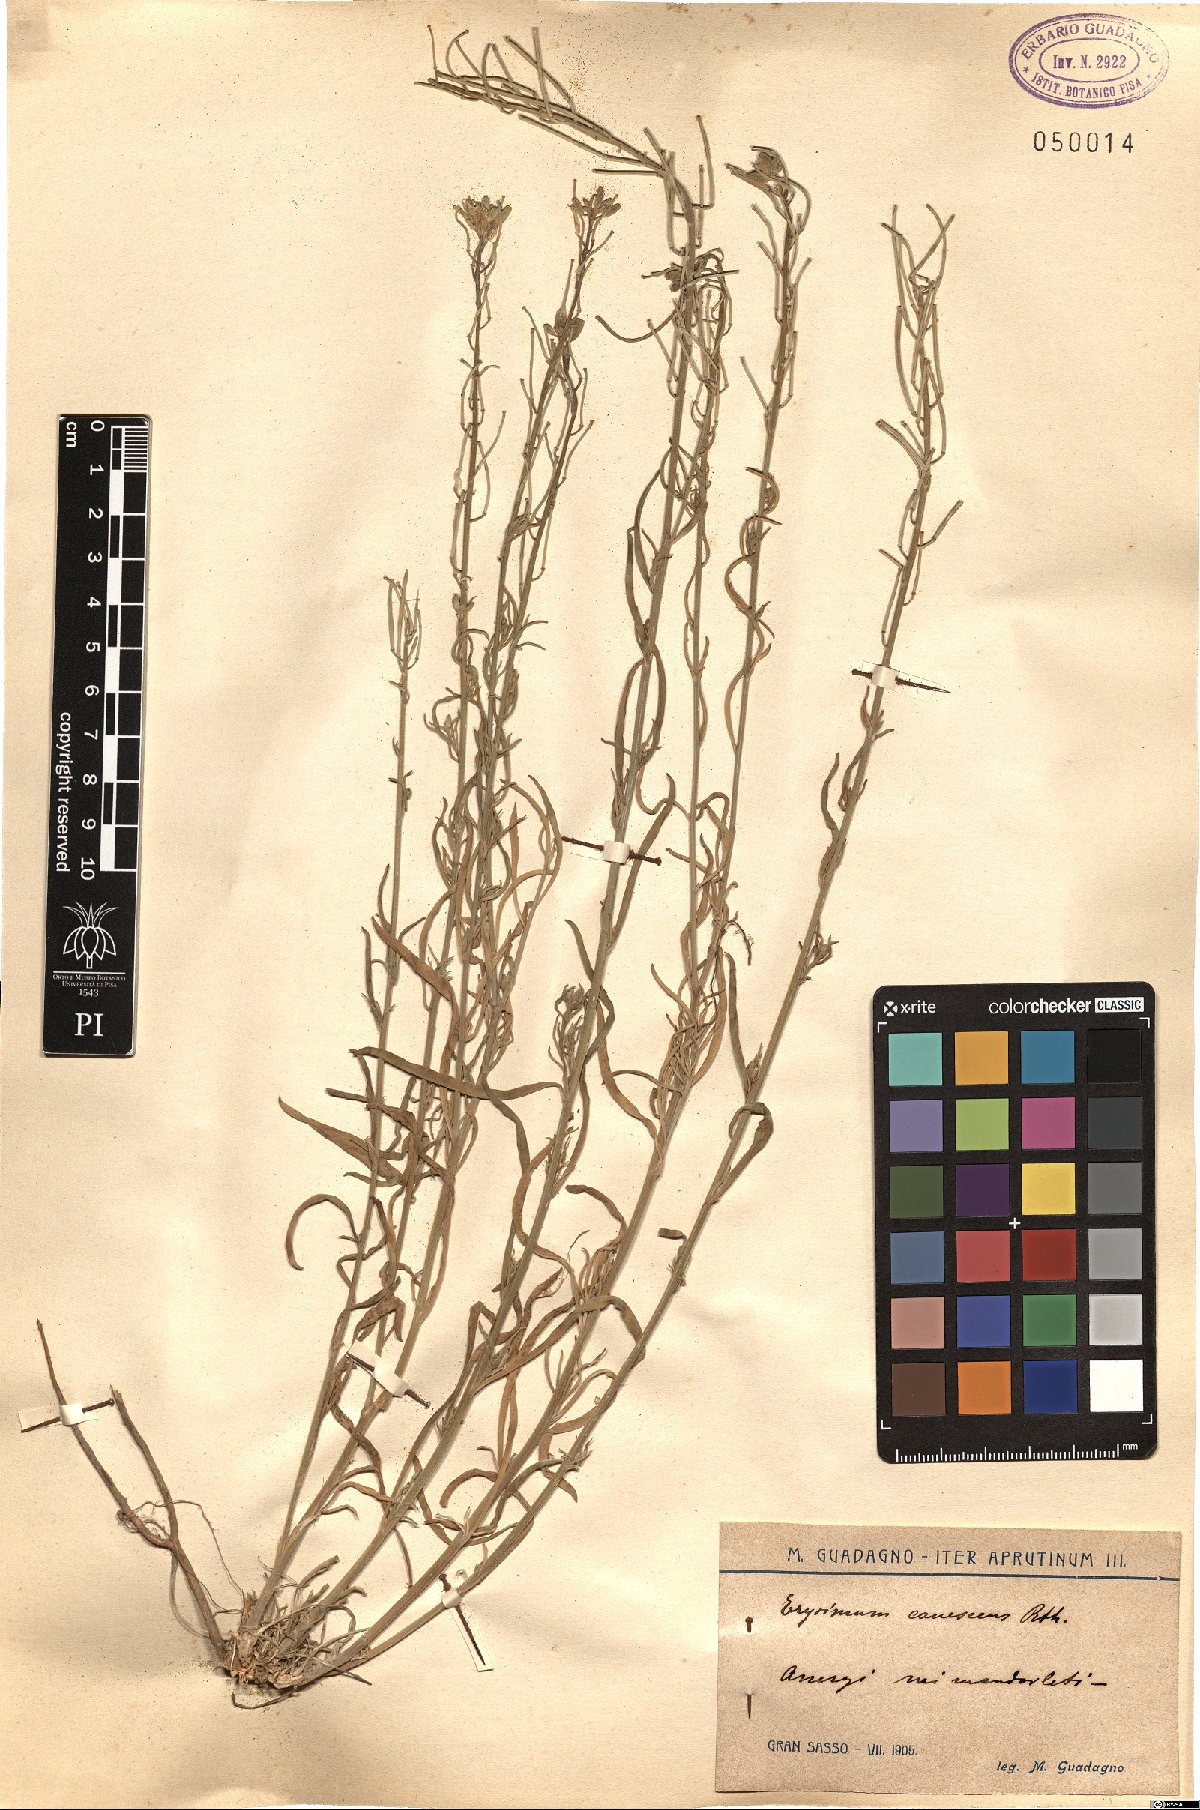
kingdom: Plantae
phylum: Tracheophyta
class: Magnoliopsida
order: Brassicales
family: Brassicaceae
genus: Erysimum
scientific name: Erysimum canescens
